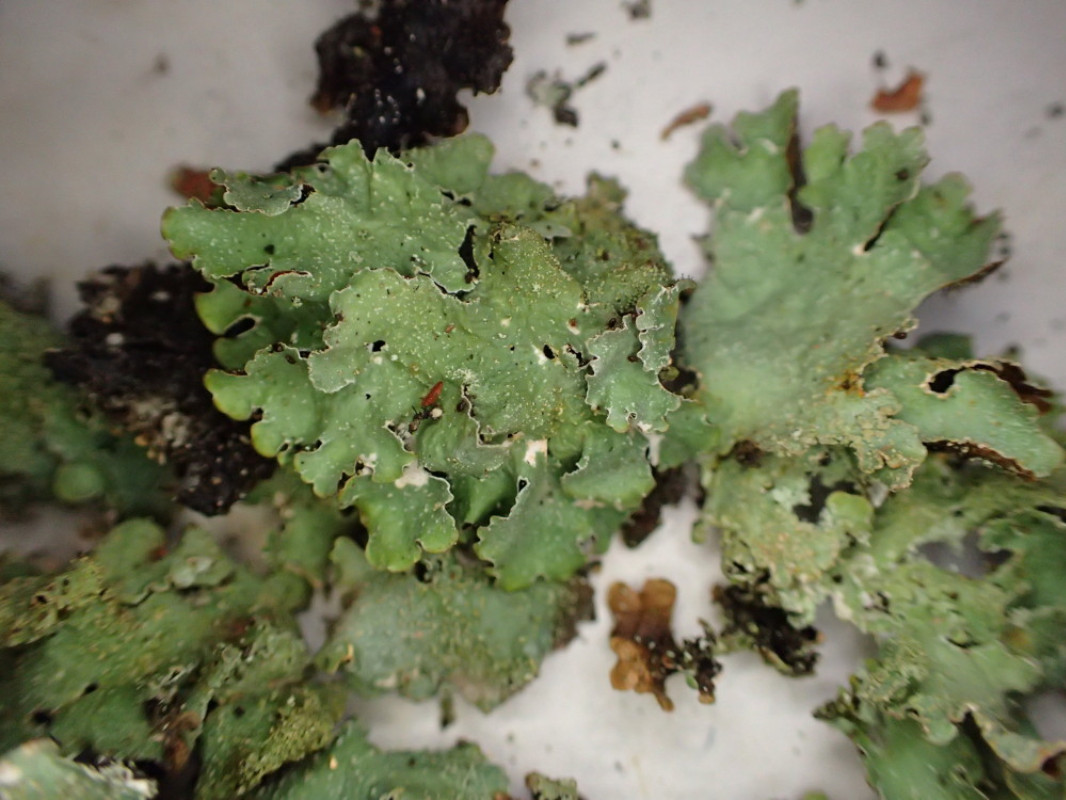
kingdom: Fungi
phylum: Ascomycota
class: Lecanoromycetes
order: Lecanorales
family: Parmeliaceae
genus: Parmelia
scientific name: Parmelia saxatilis
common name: farve-skållav
